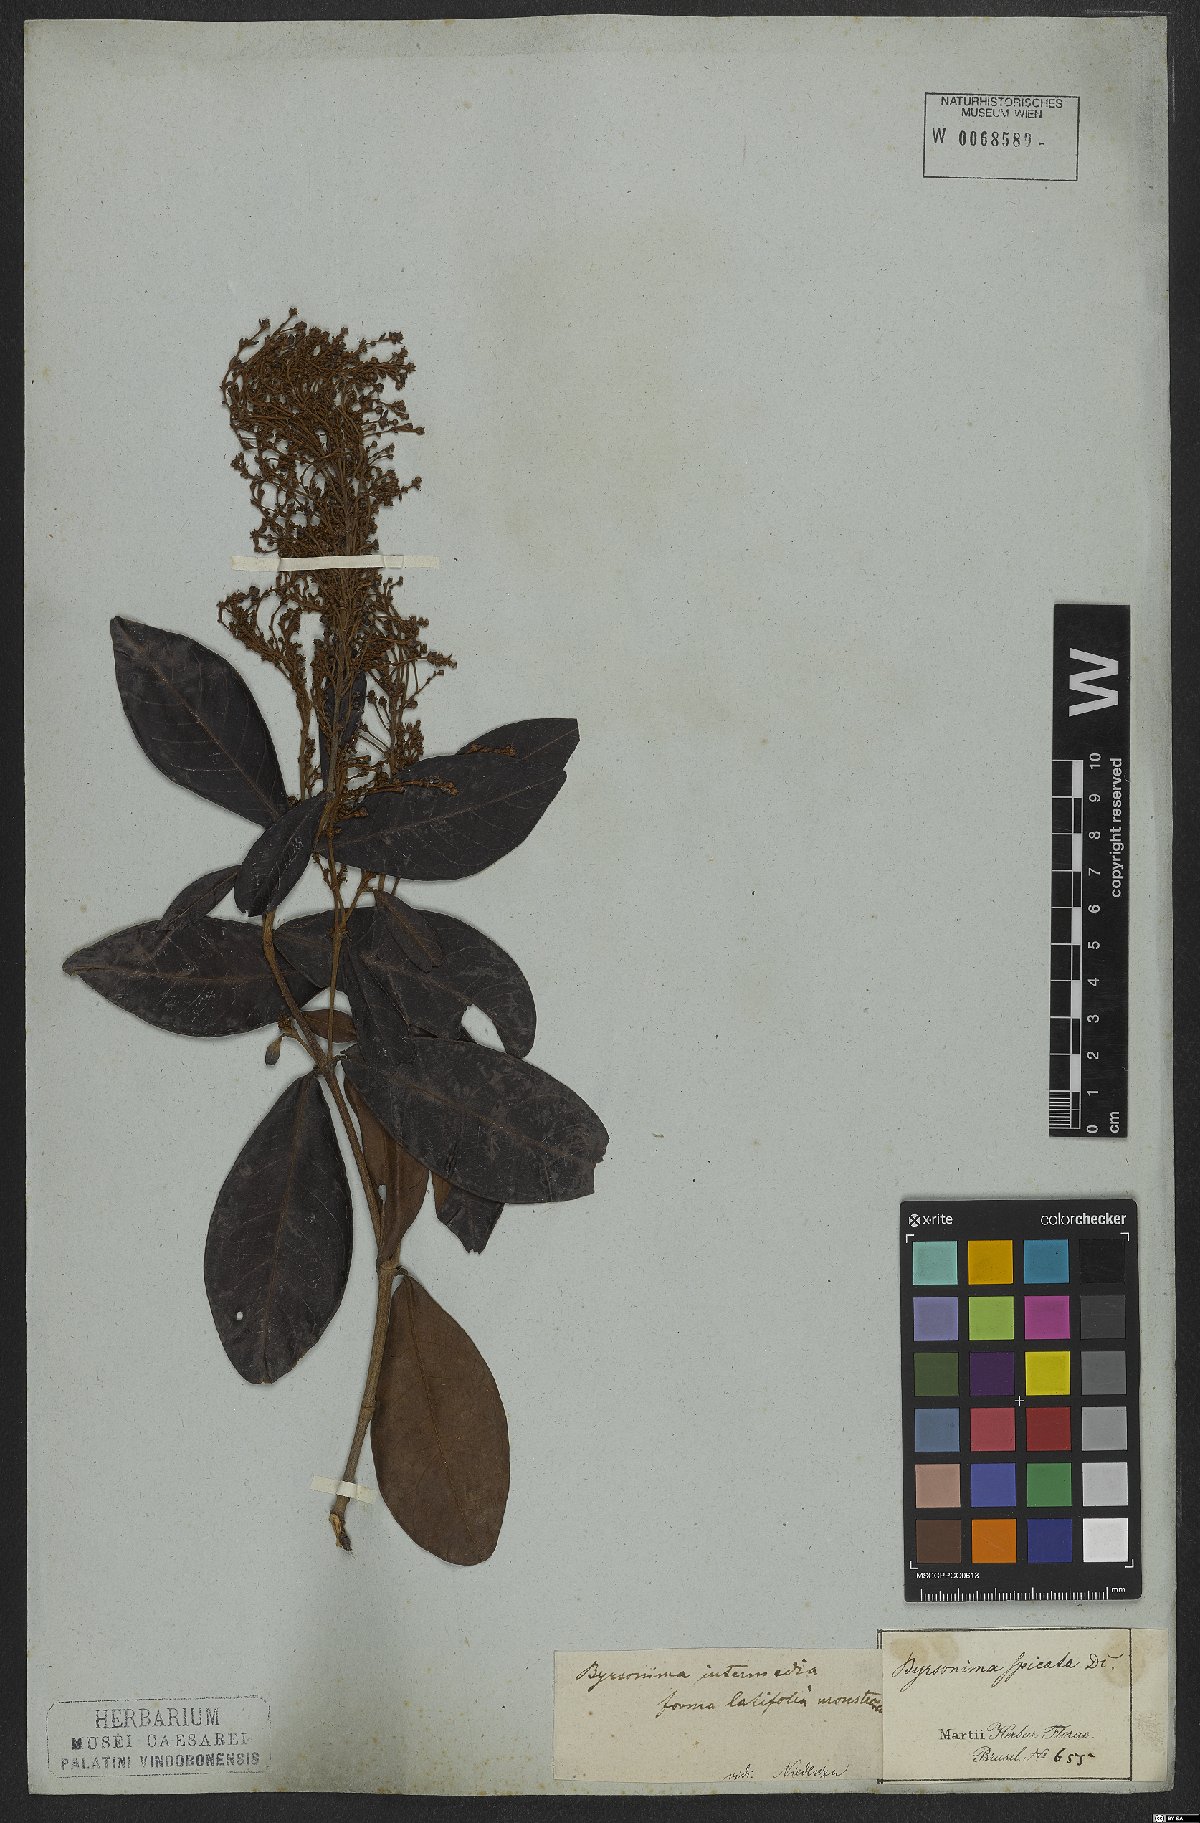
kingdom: Plantae
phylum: Tracheophyta
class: Magnoliopsida
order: Malpighiales
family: Malpighiaceae
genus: Byrsonima
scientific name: Byrsonima intermedia
